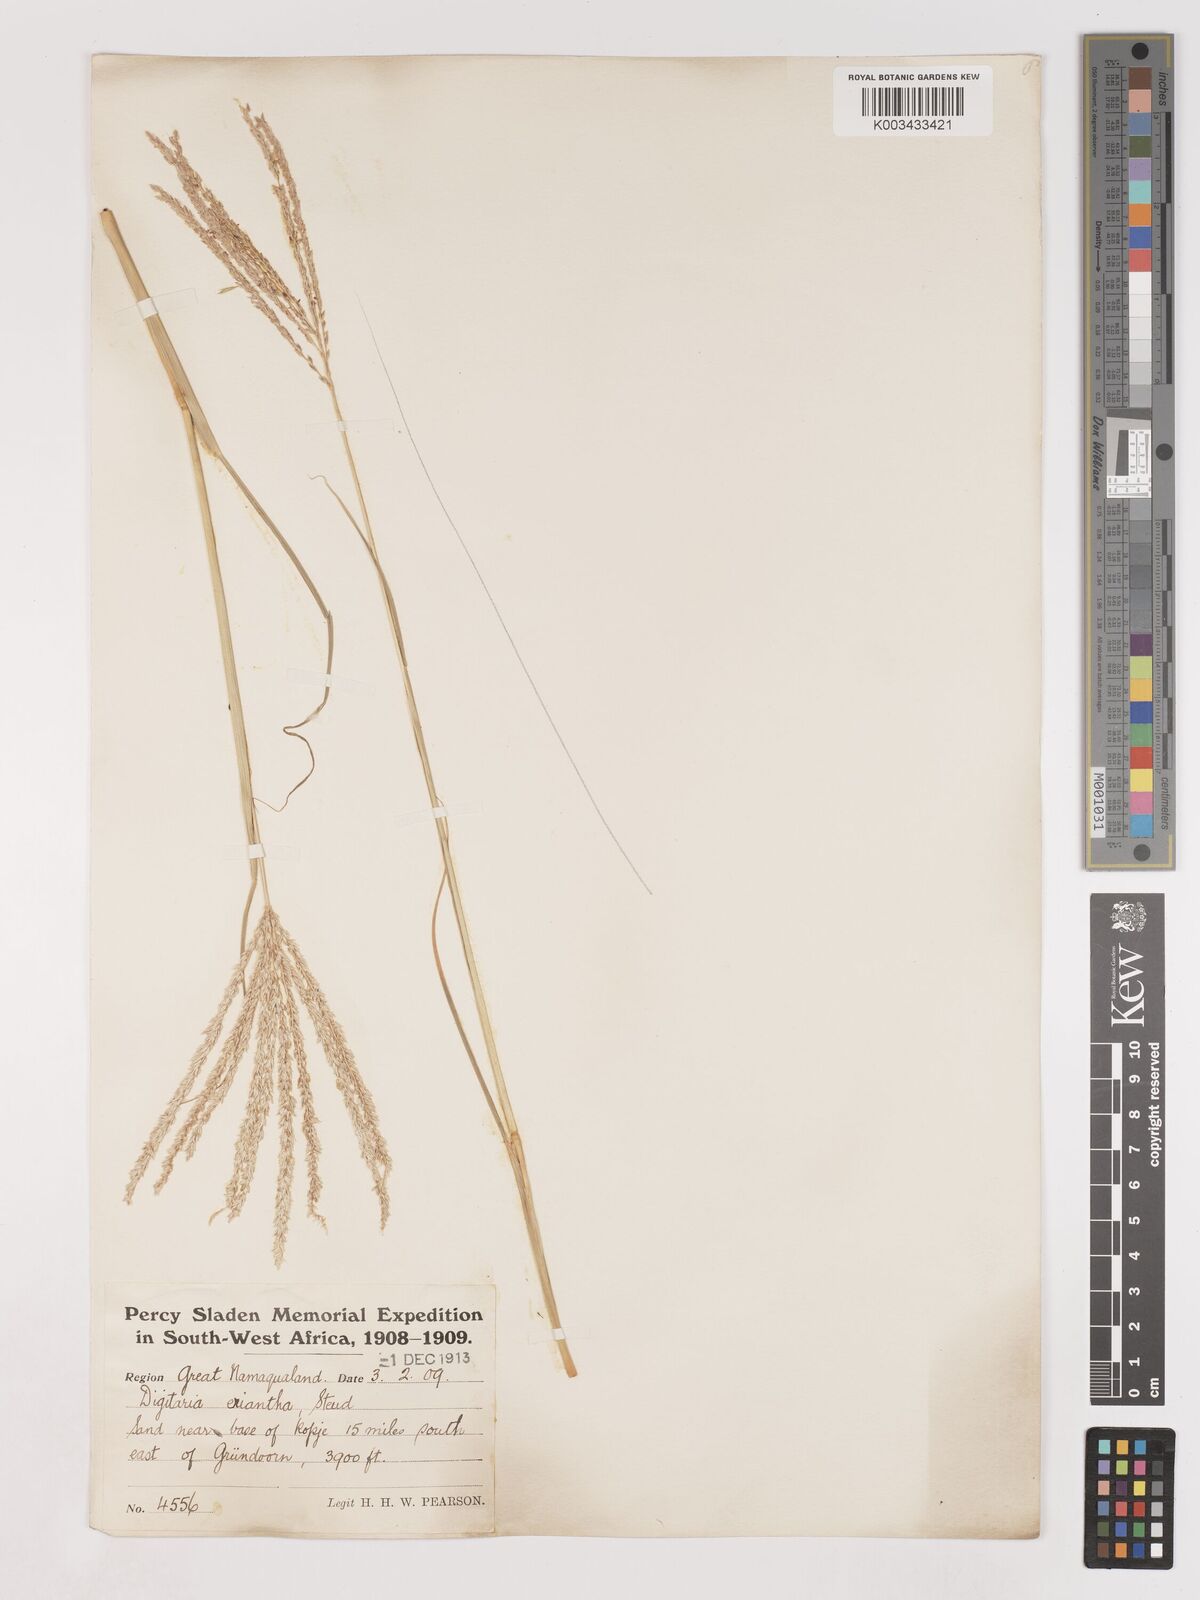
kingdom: Plantae
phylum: Tracheophyta
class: Liliopsida
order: Poales
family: Poaceae
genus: Digitaria
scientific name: Digitaria eriantha
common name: Digitgrass
